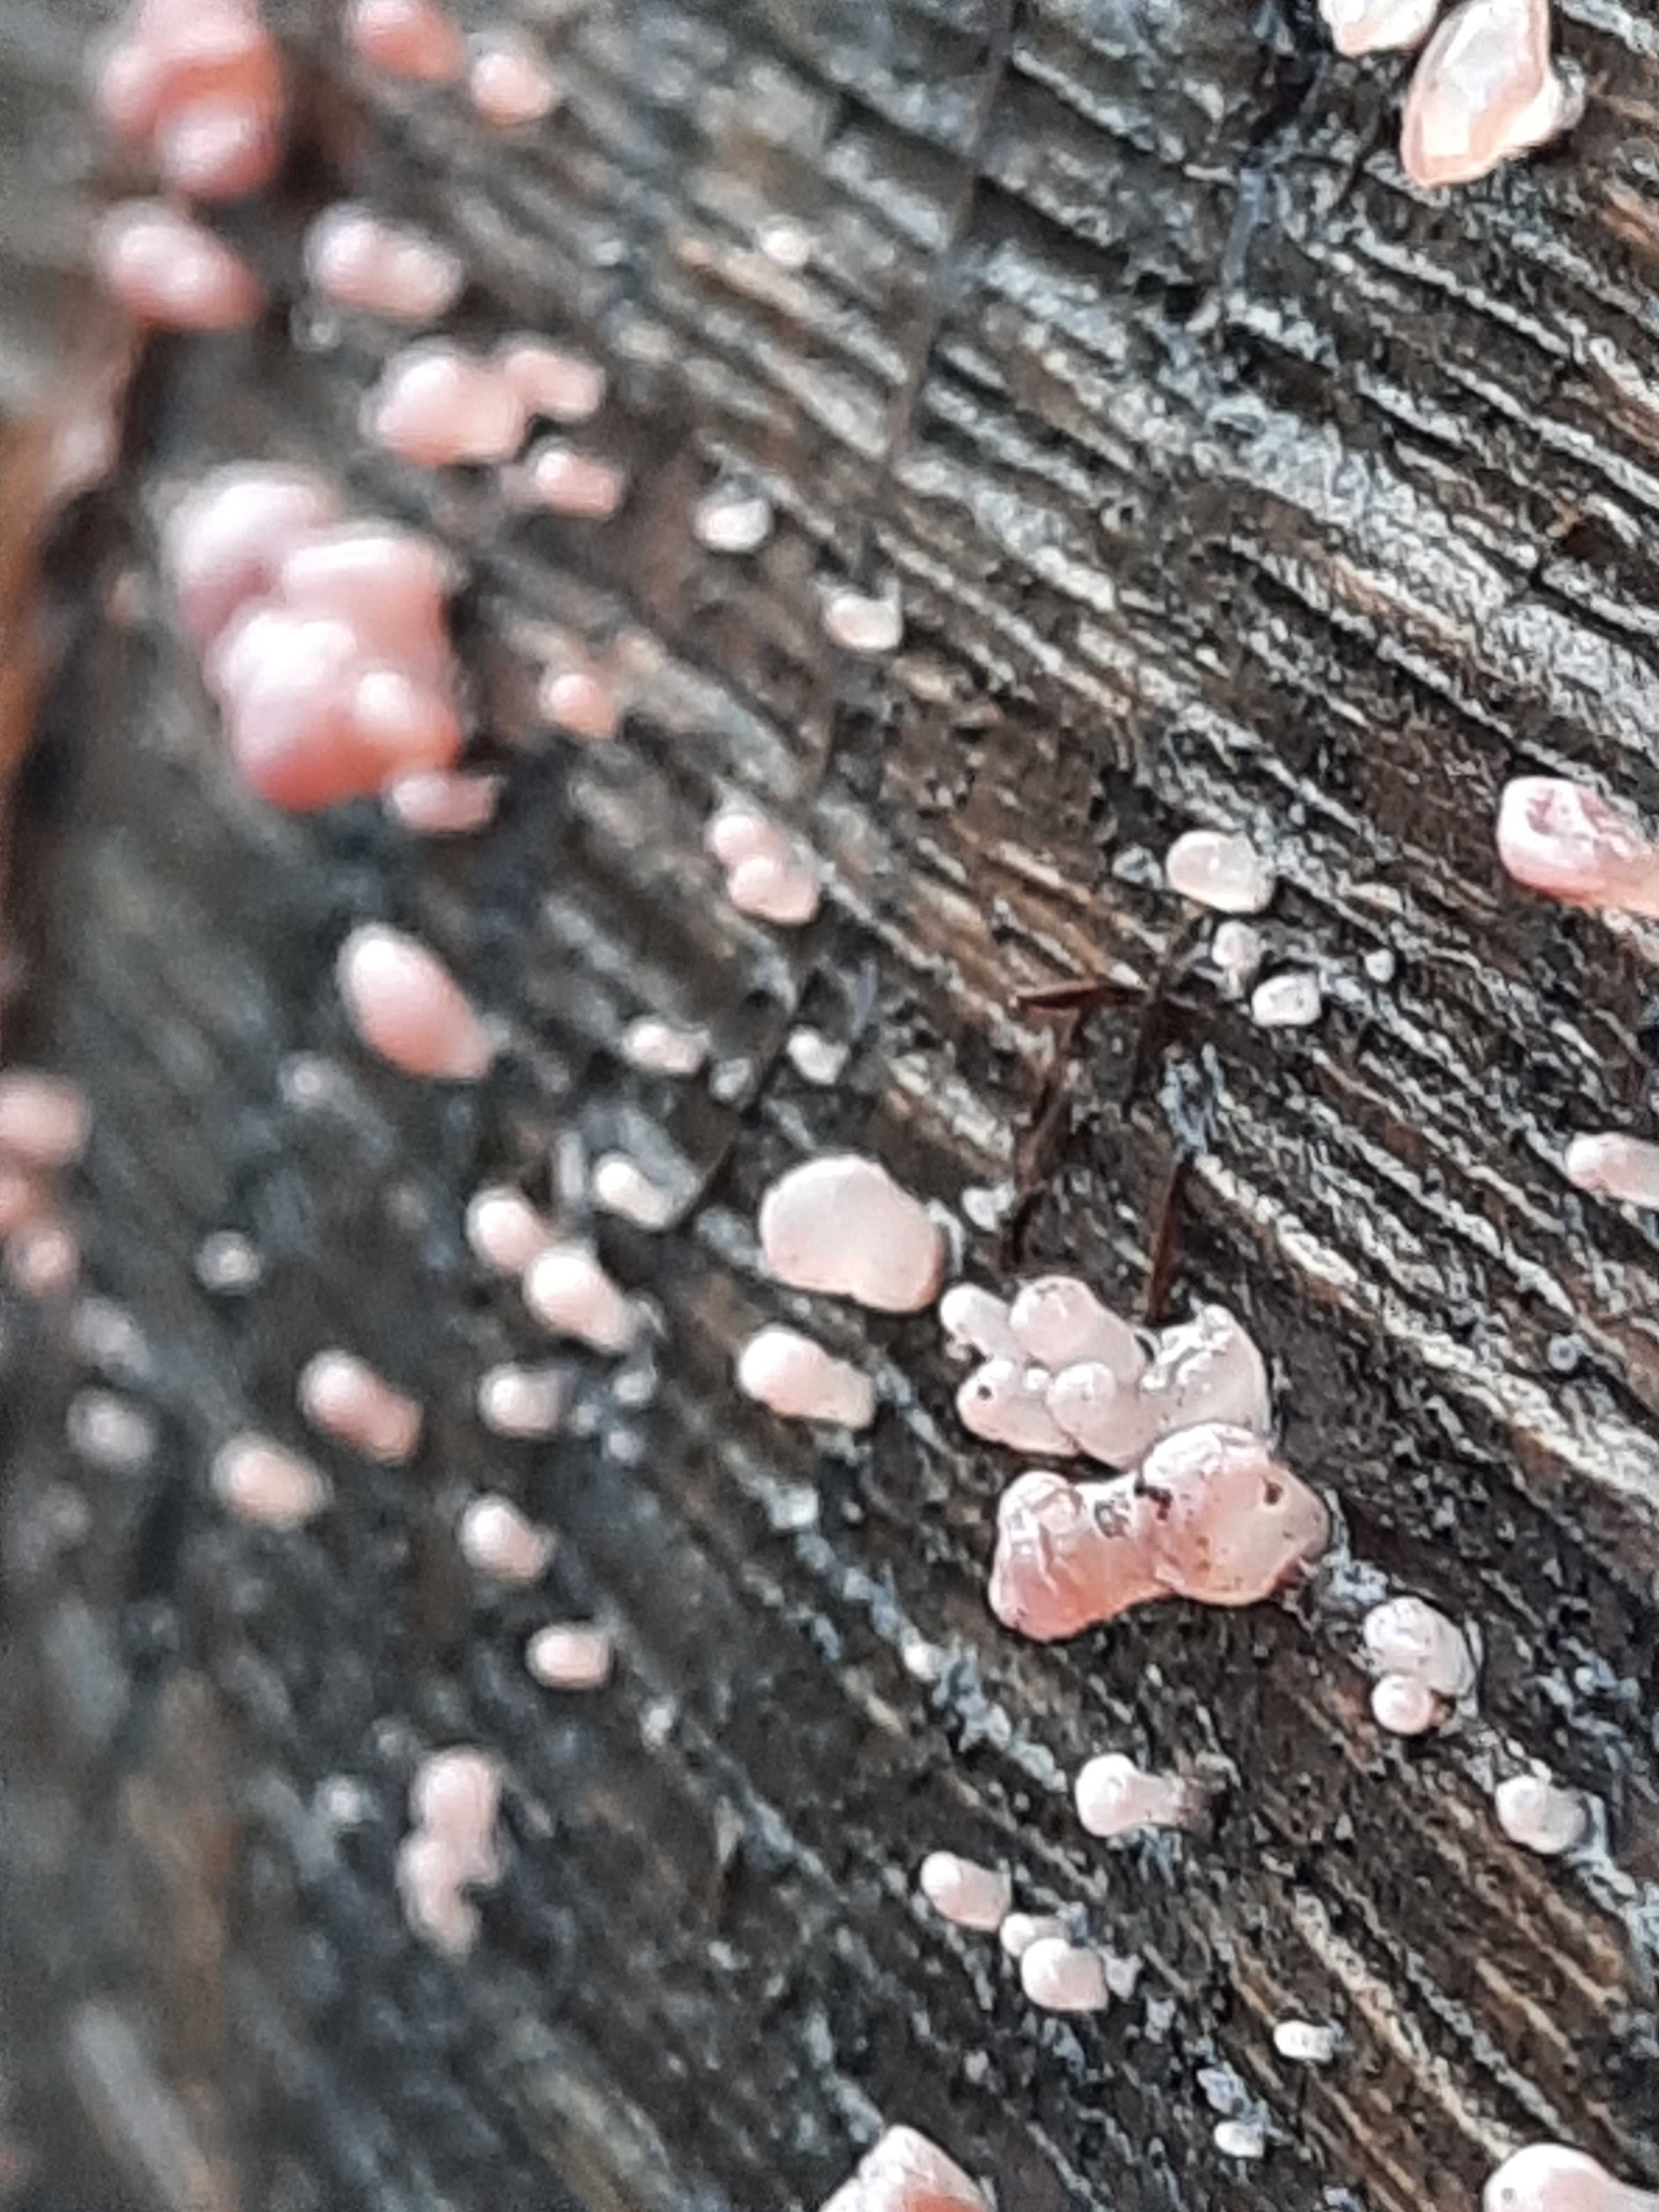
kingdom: Fungi
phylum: Ascomycota
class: Leotiomycetes
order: Helotiales
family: Gelatinodiscaceae
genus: Ascocoryne
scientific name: Ascocoryne sarcoides
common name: rødlilla sejskive
